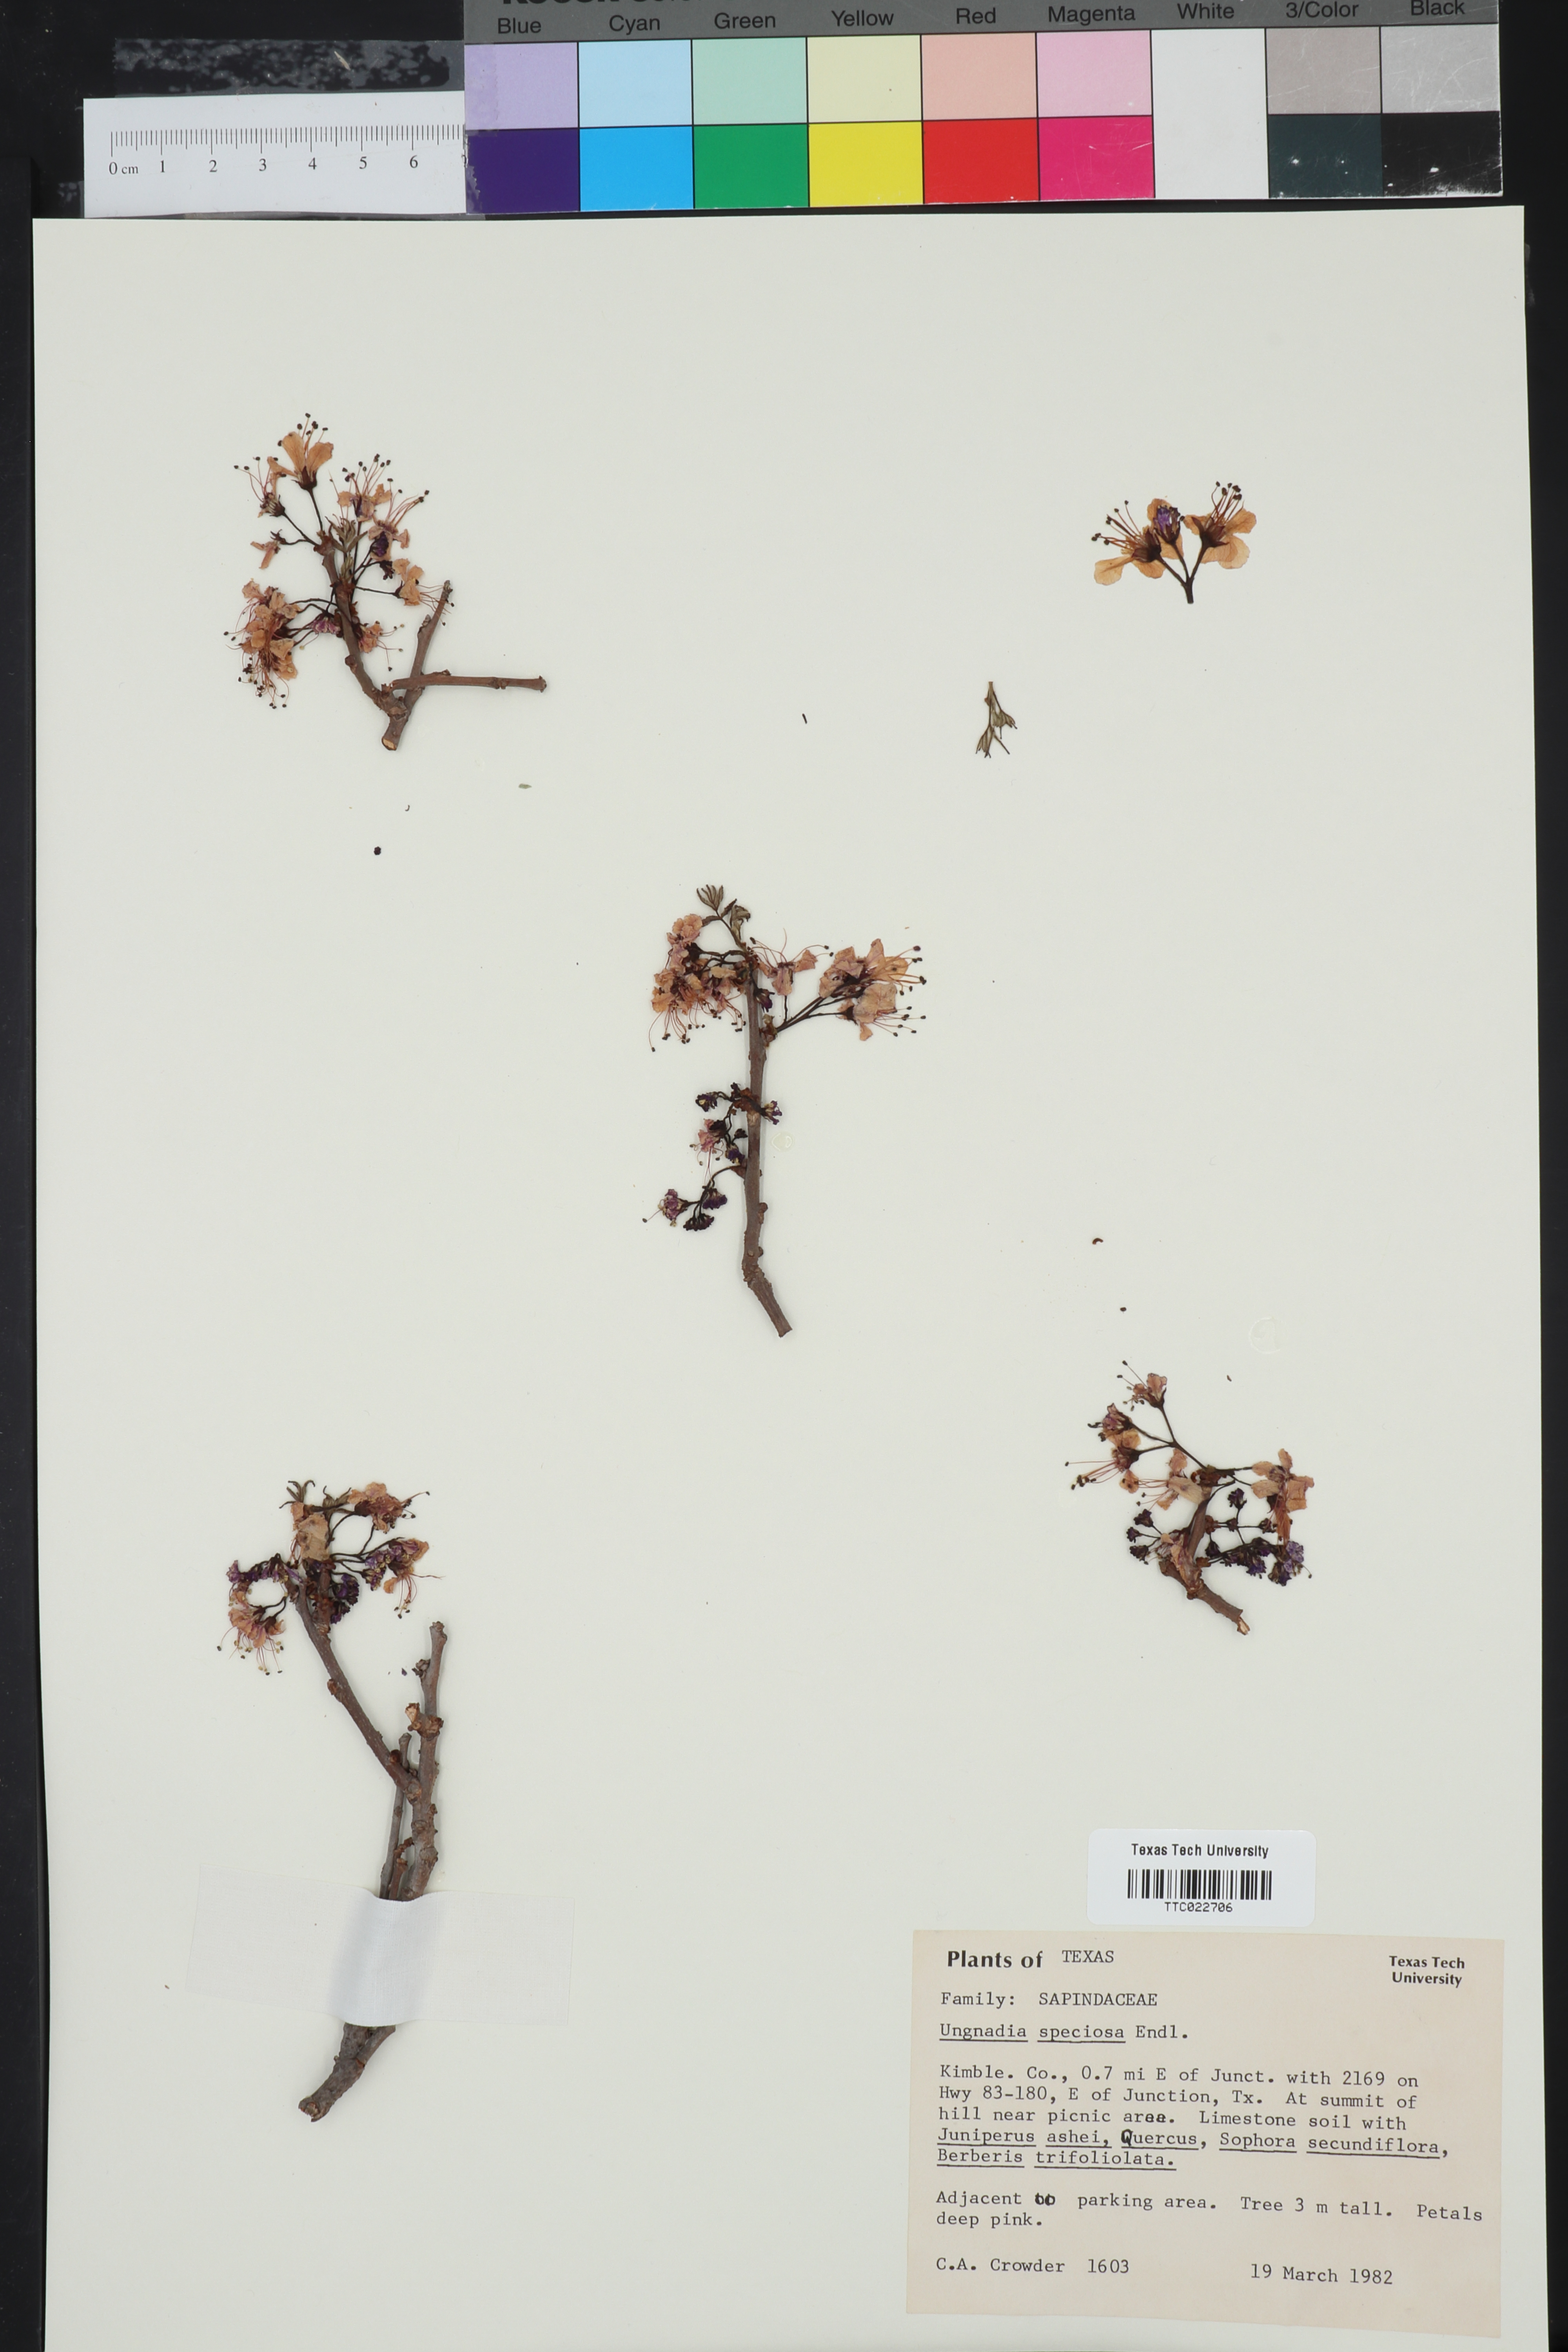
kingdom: Plantae
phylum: Tracheophyta
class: Magnoliopsida
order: Sapindales
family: Sapindaceae
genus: Ungnadia
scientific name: Ungnadia speciosa
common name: Texas-buckeye
